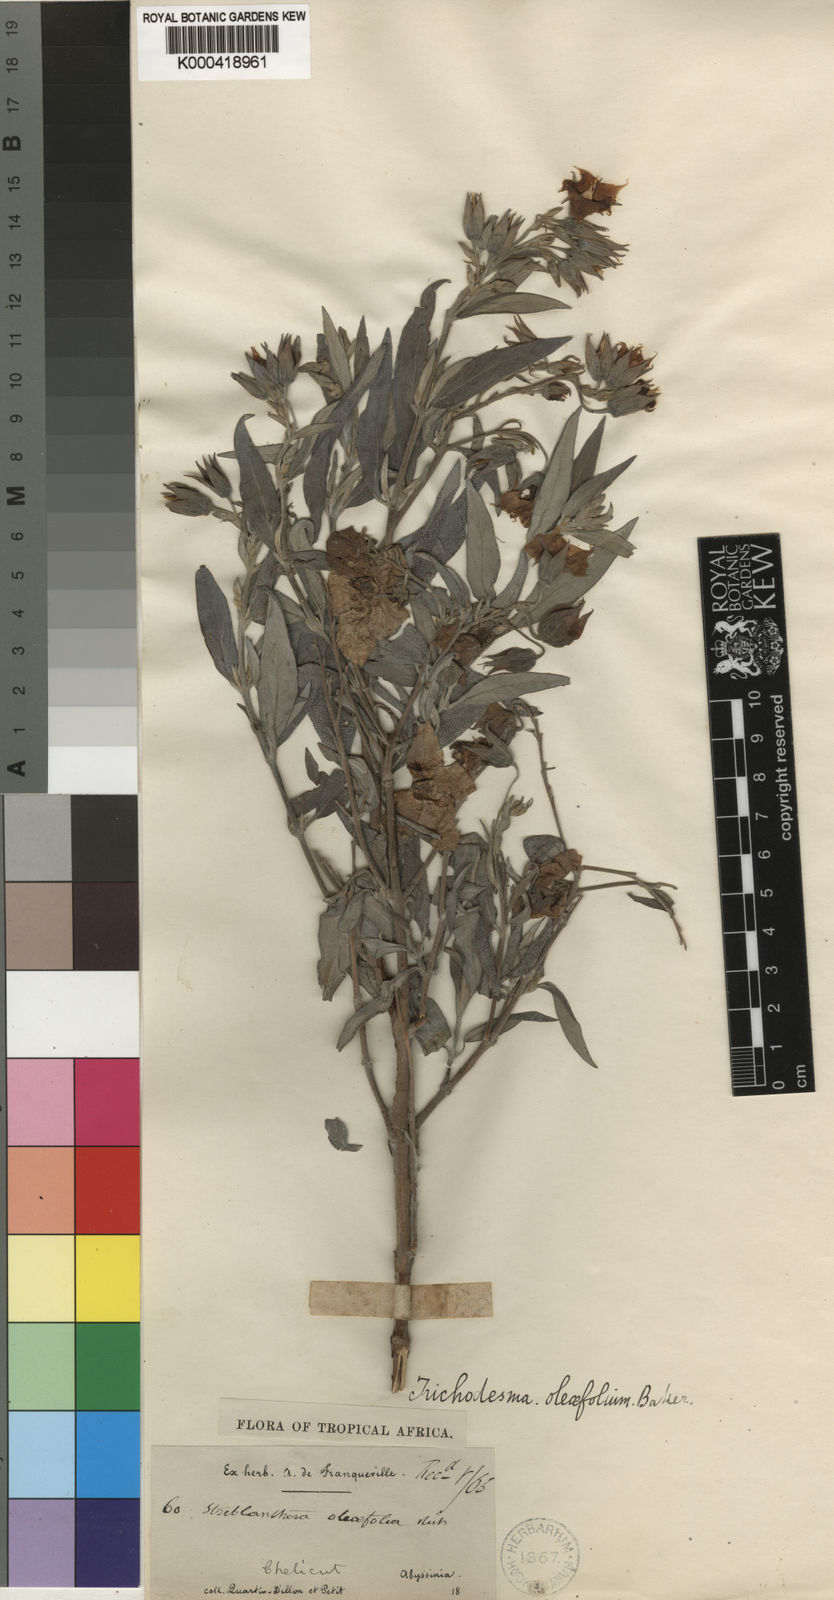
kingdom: Plantae
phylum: Tracheophyta
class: Magnoliopsida
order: Boraginales
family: Boraginaceae
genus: Trichodesma
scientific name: Trichodesma trichodesmoides
